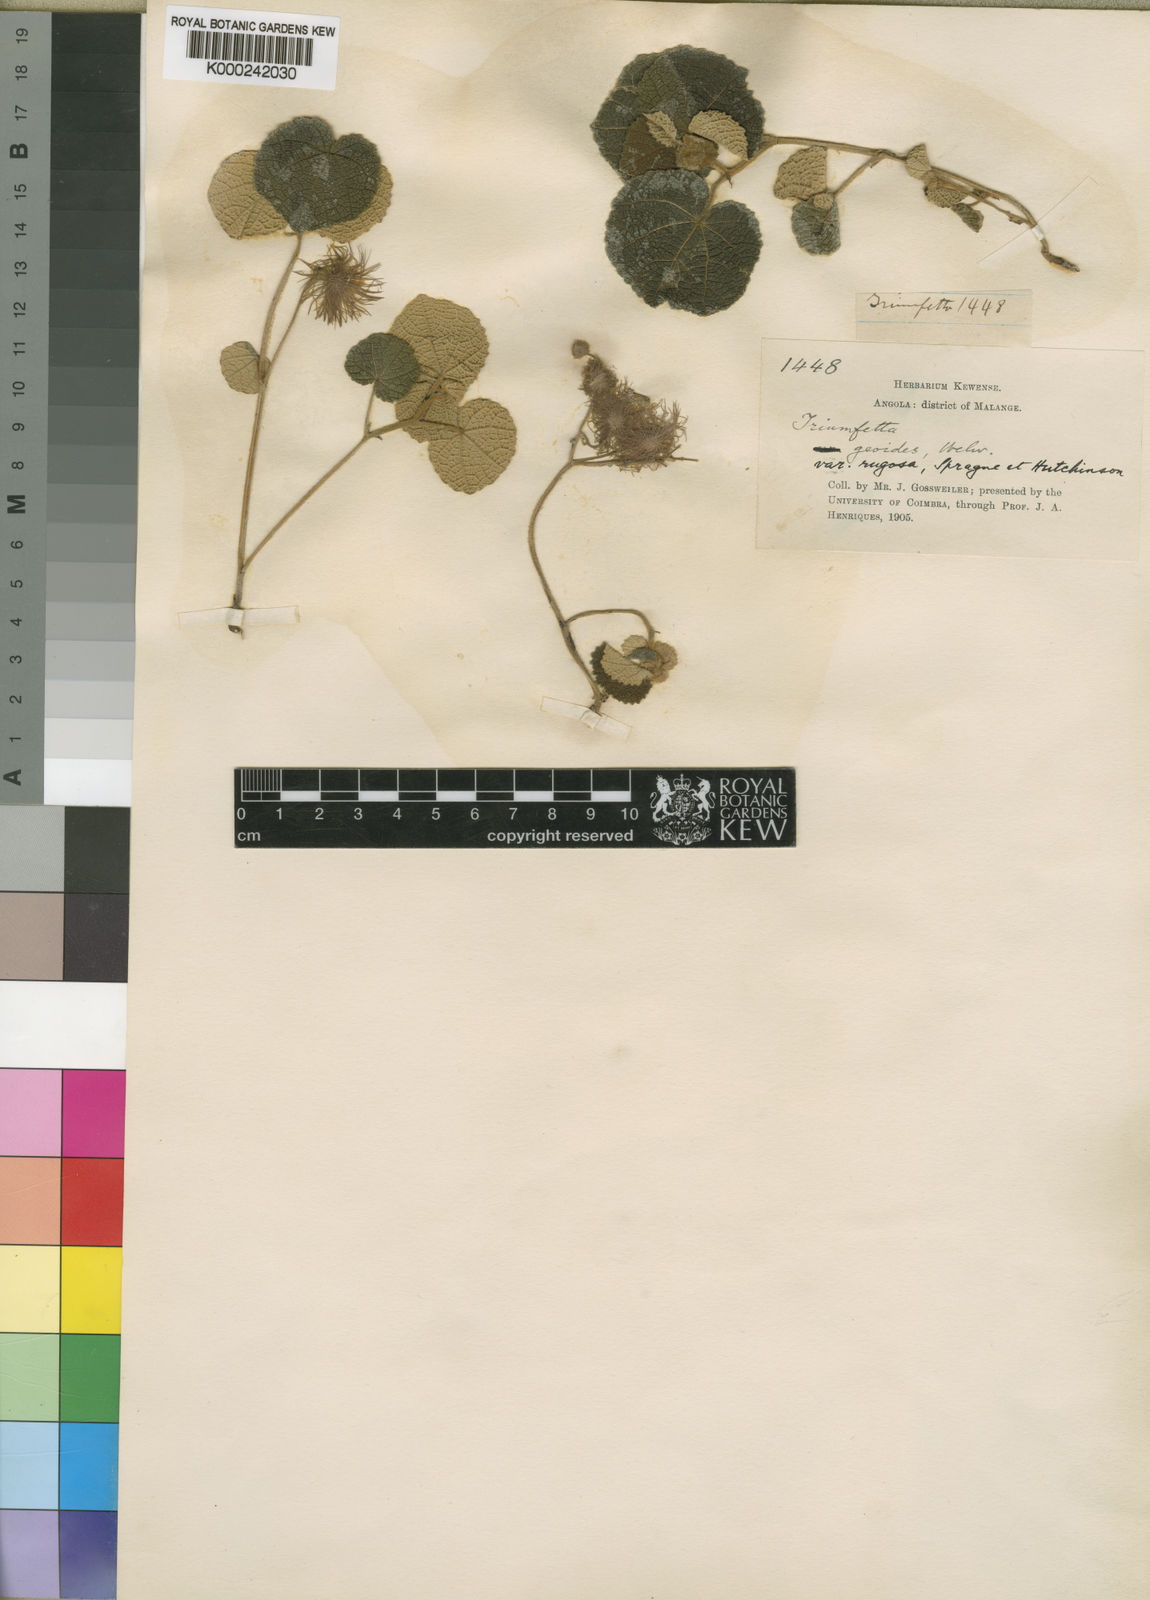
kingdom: Plantae
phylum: Tracheophyta
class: Magnoliopsida
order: Malvales
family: Malvaceae
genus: Triumfetta
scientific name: Triumfetta geoides
